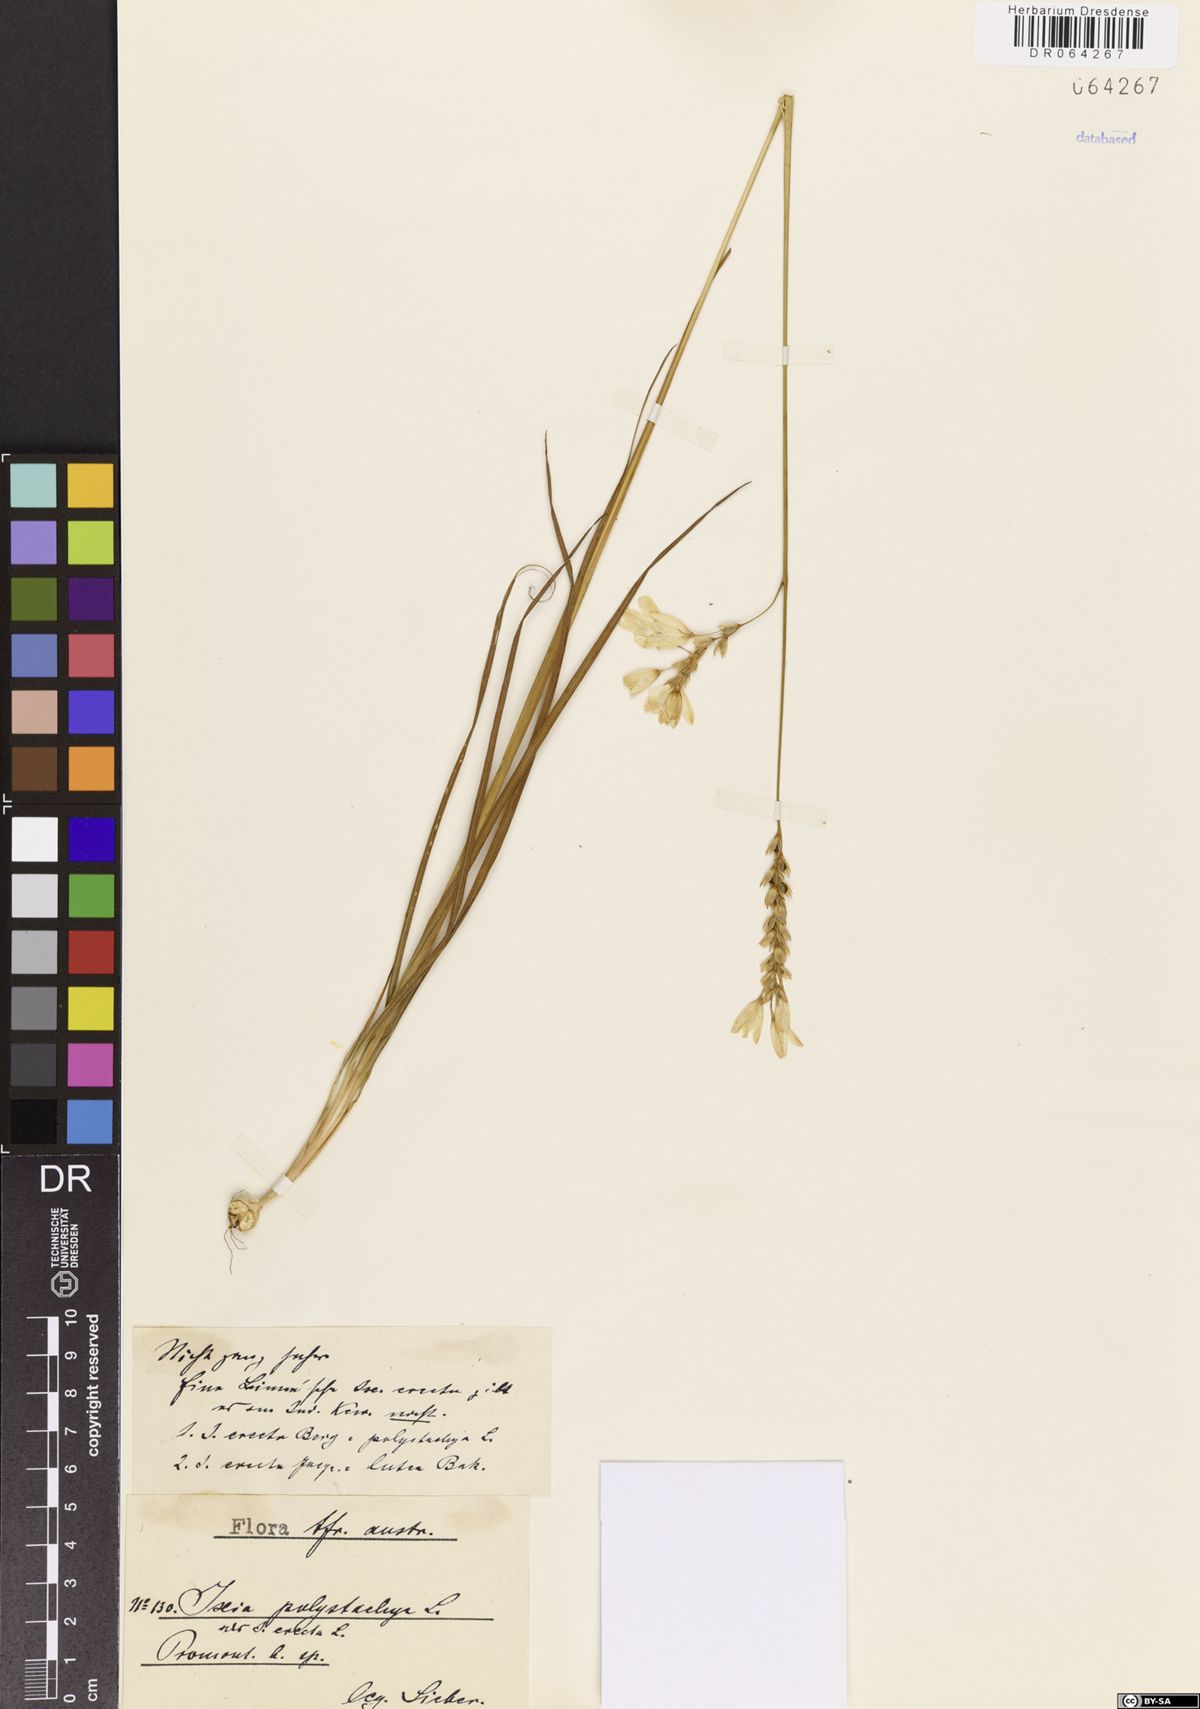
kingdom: Plantae
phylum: Tracheophyta
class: Liliopsida
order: Asparagales
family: Iridaceae
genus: Ixia
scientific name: Ixia polystachya
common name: White-and-yellow-flower cornlily
